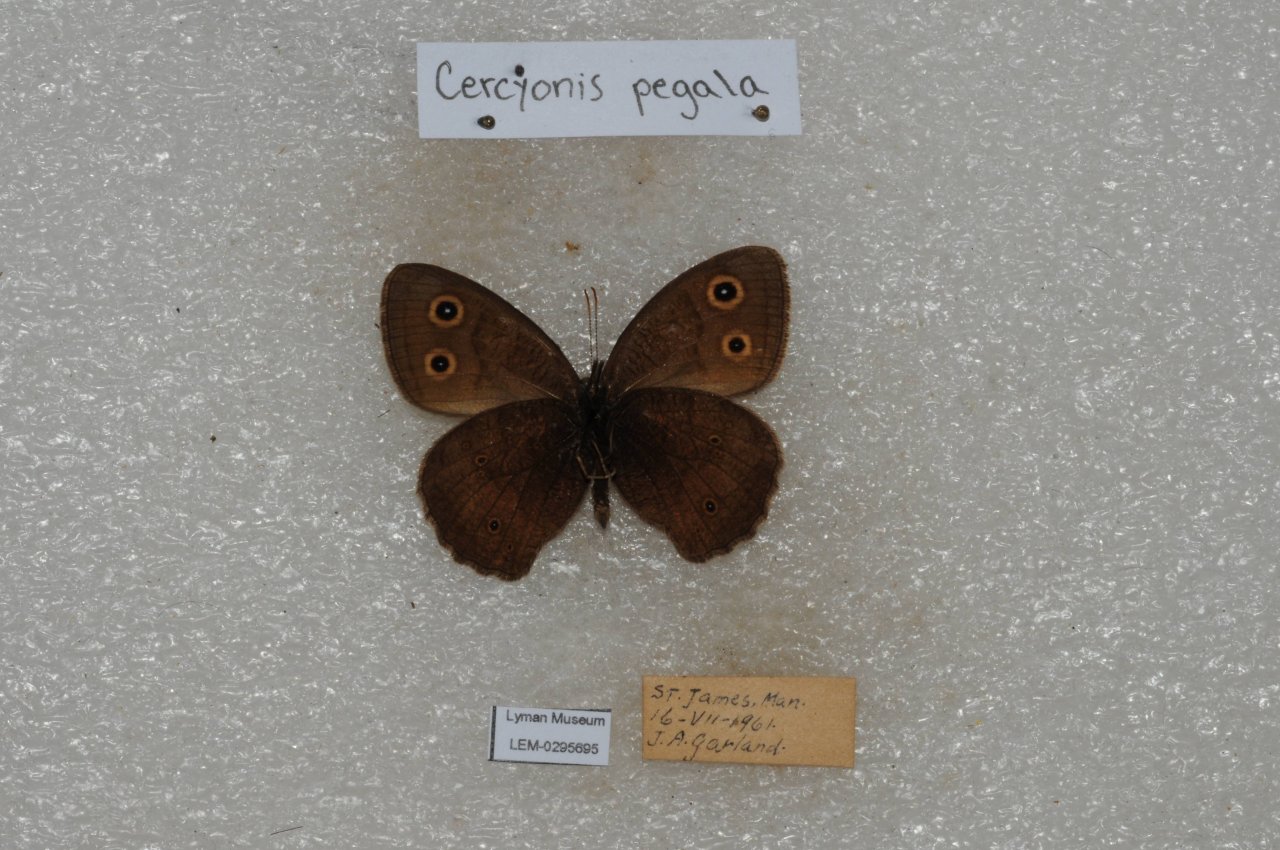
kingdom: Animalia
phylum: Arthropoda
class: Insecta
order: Lepidoptera
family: Nymphalidae
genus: Cercyonis
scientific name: Cercyonis pegala
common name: Common Wood-Nymph
